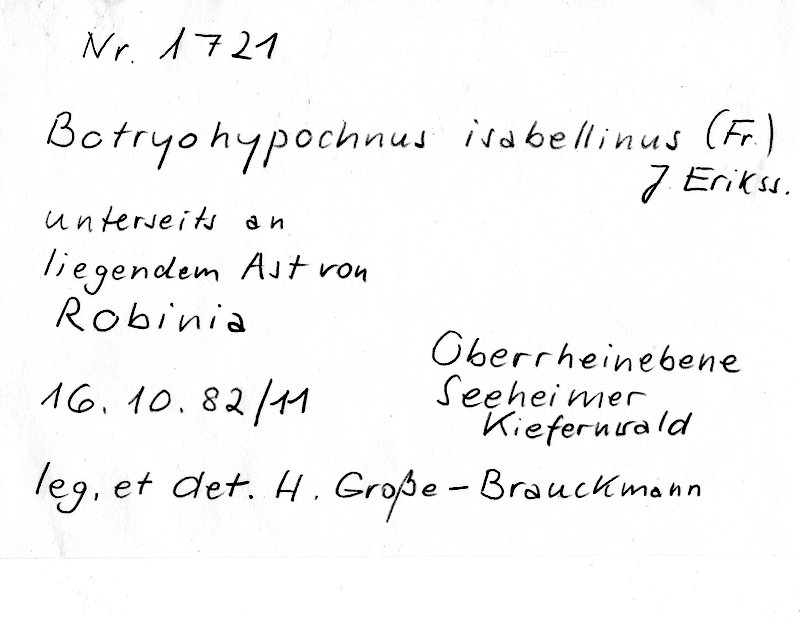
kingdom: Plantae
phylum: Tracheophyta
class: Magnoliopsida
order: Fabales
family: Fabaceae
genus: Robinia
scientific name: Robinia
